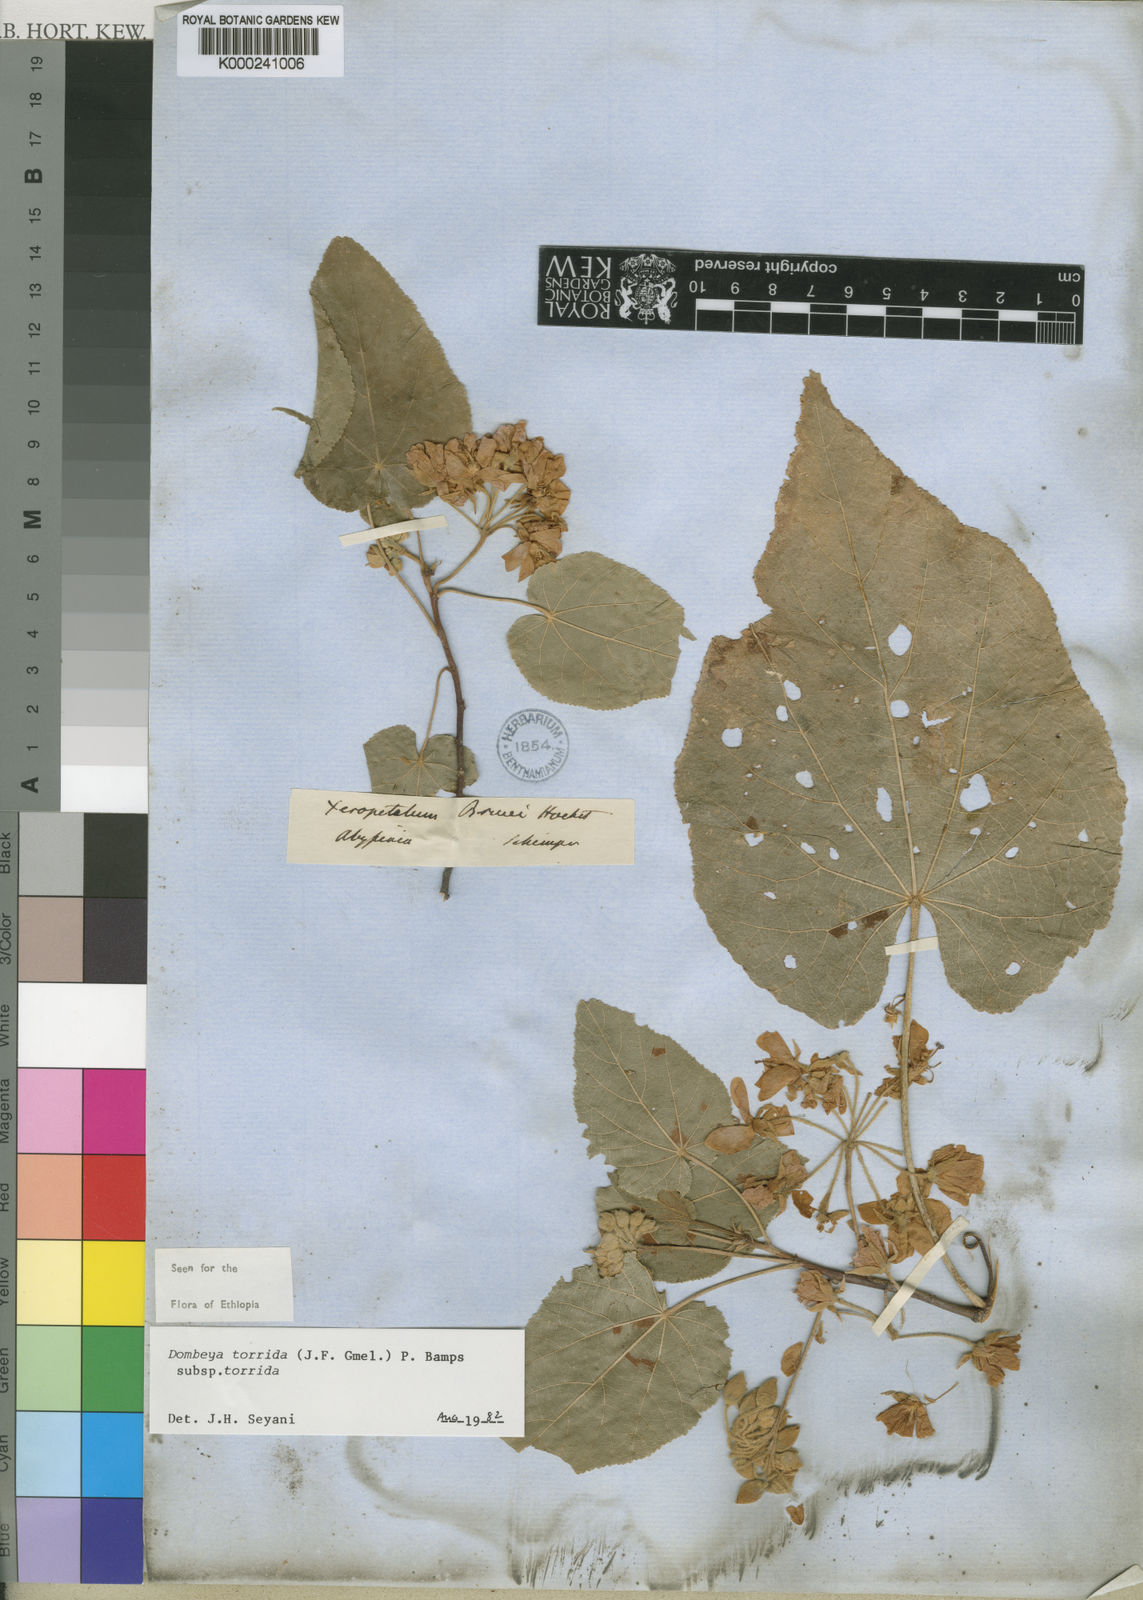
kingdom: Plantae
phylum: Tracheophyta
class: Magnoliopsida
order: Malvales
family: Malvaceae
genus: Dombeya
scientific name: Dombeya torrida
